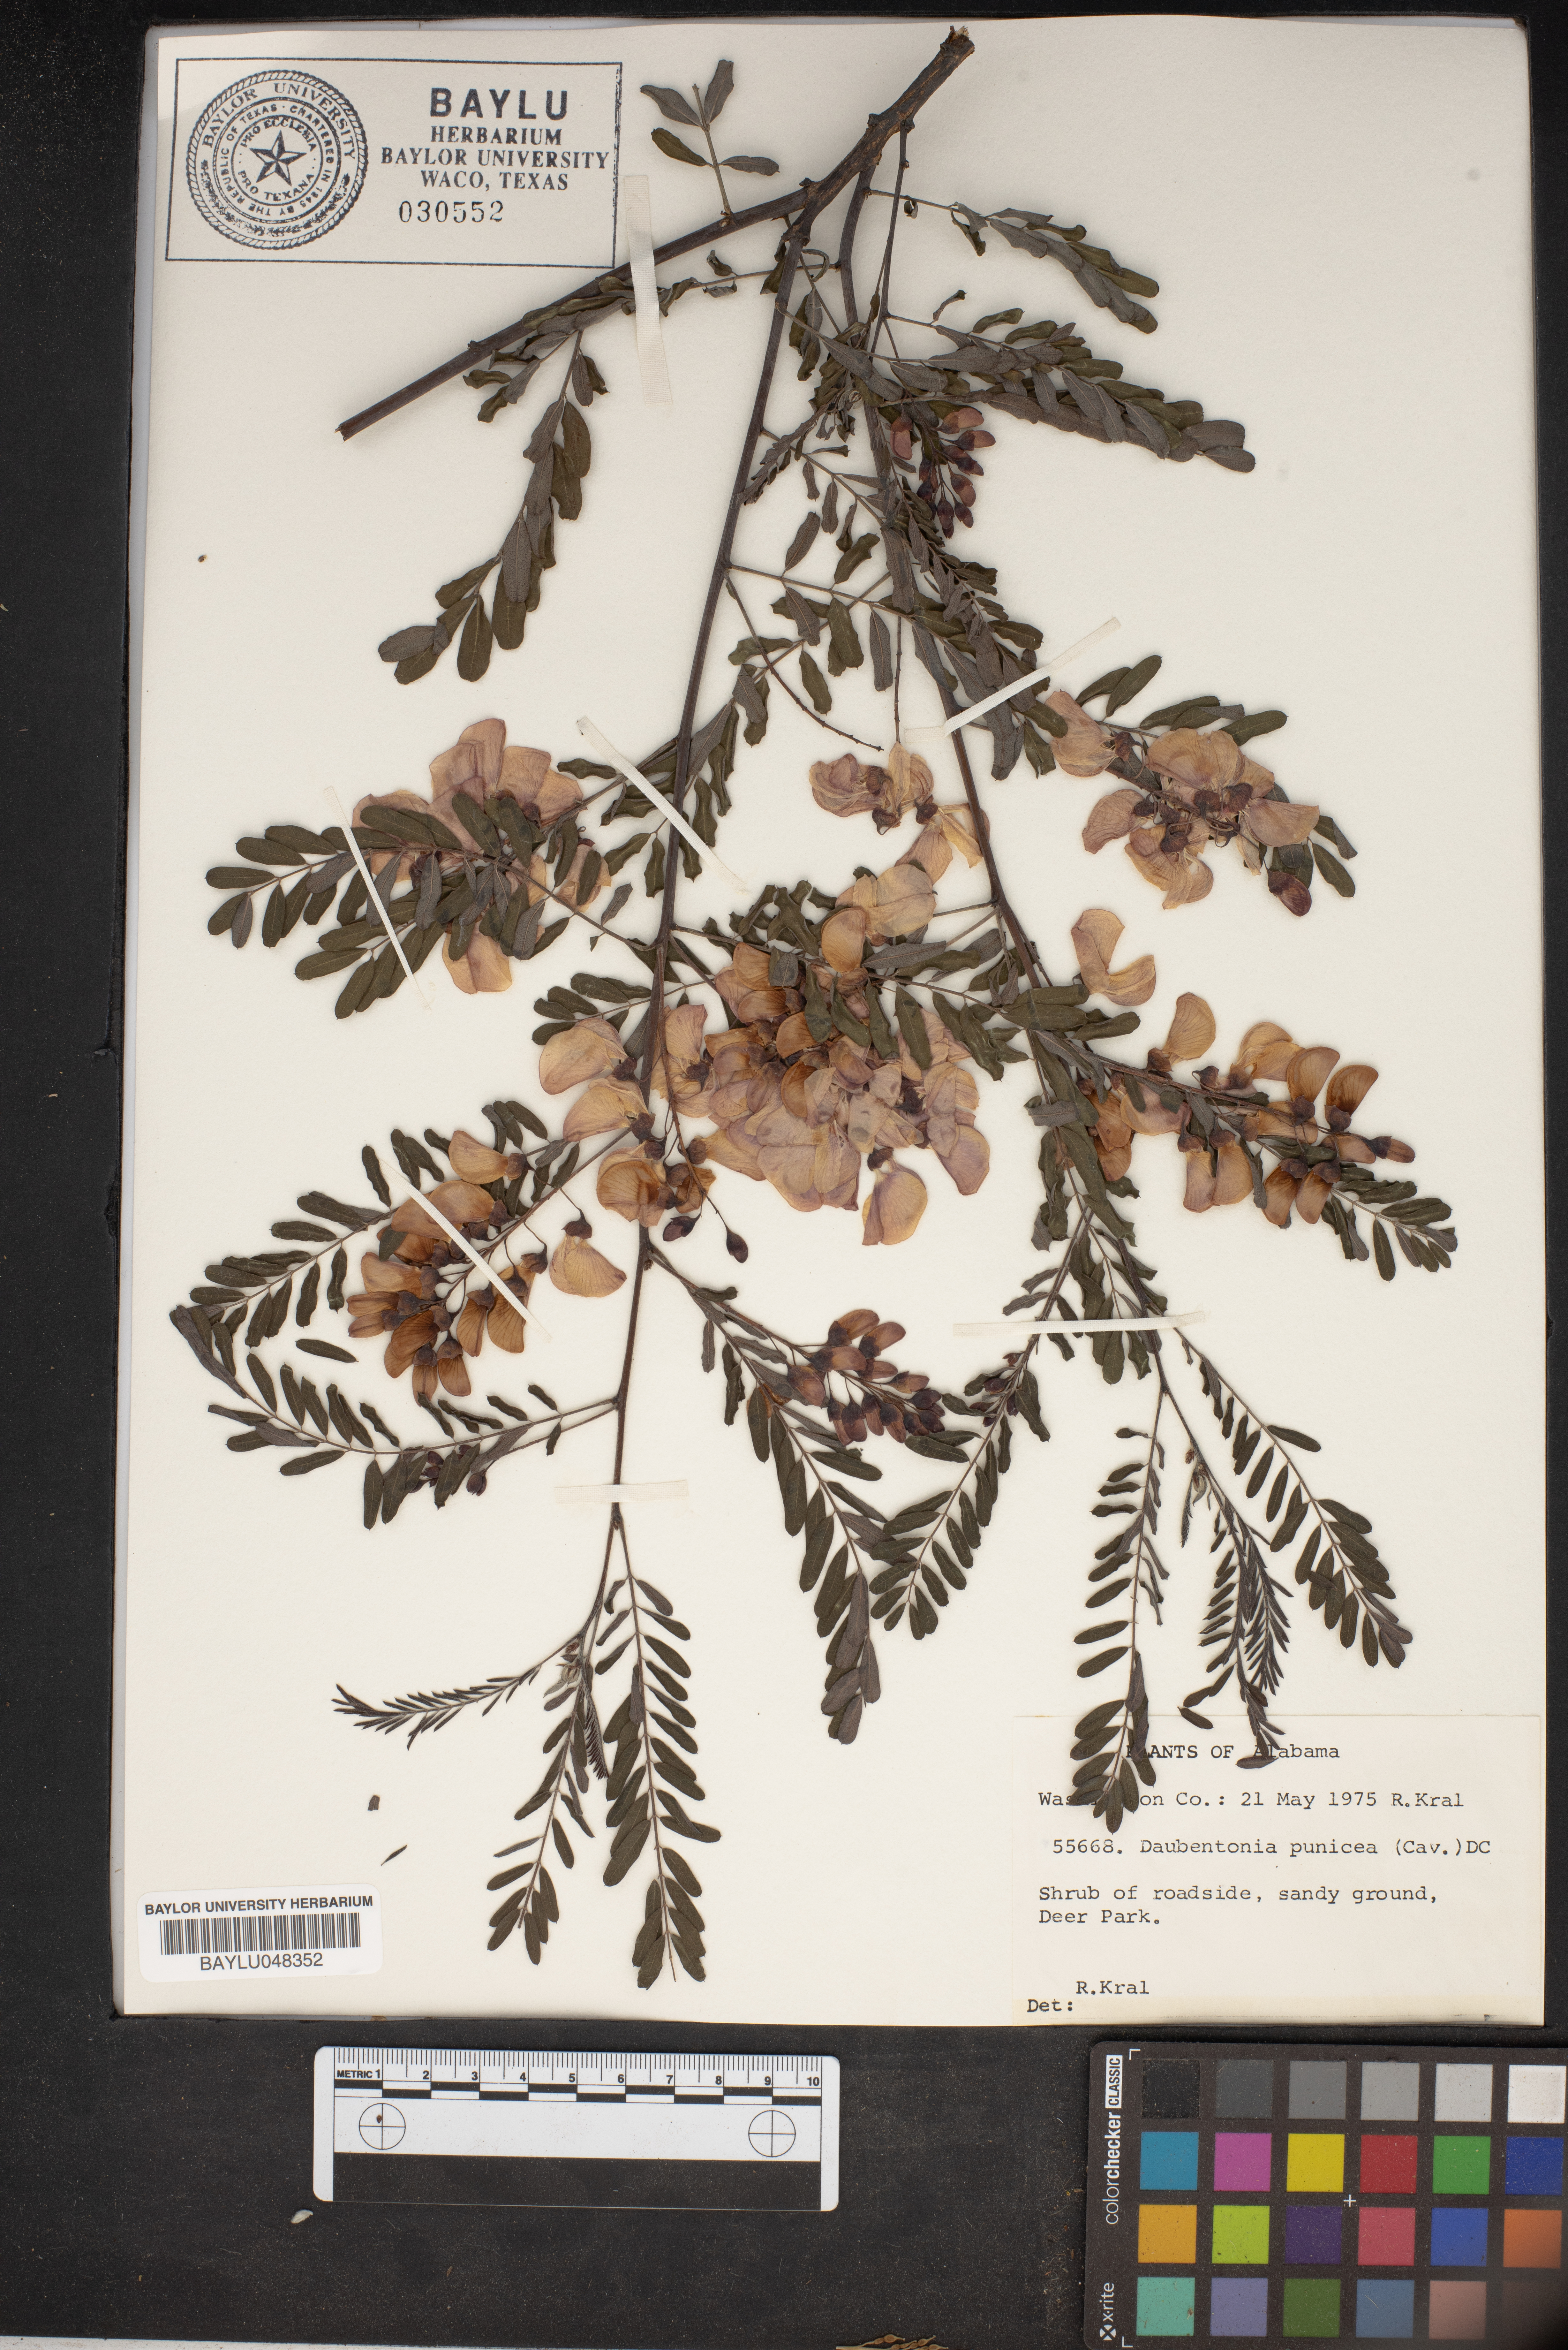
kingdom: Plantae
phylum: Tracheophyta
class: Magnoliopsida
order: Fabales
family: Fabaceae
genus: Sesbania
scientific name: Sesbania punicea
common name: Rattlebox
